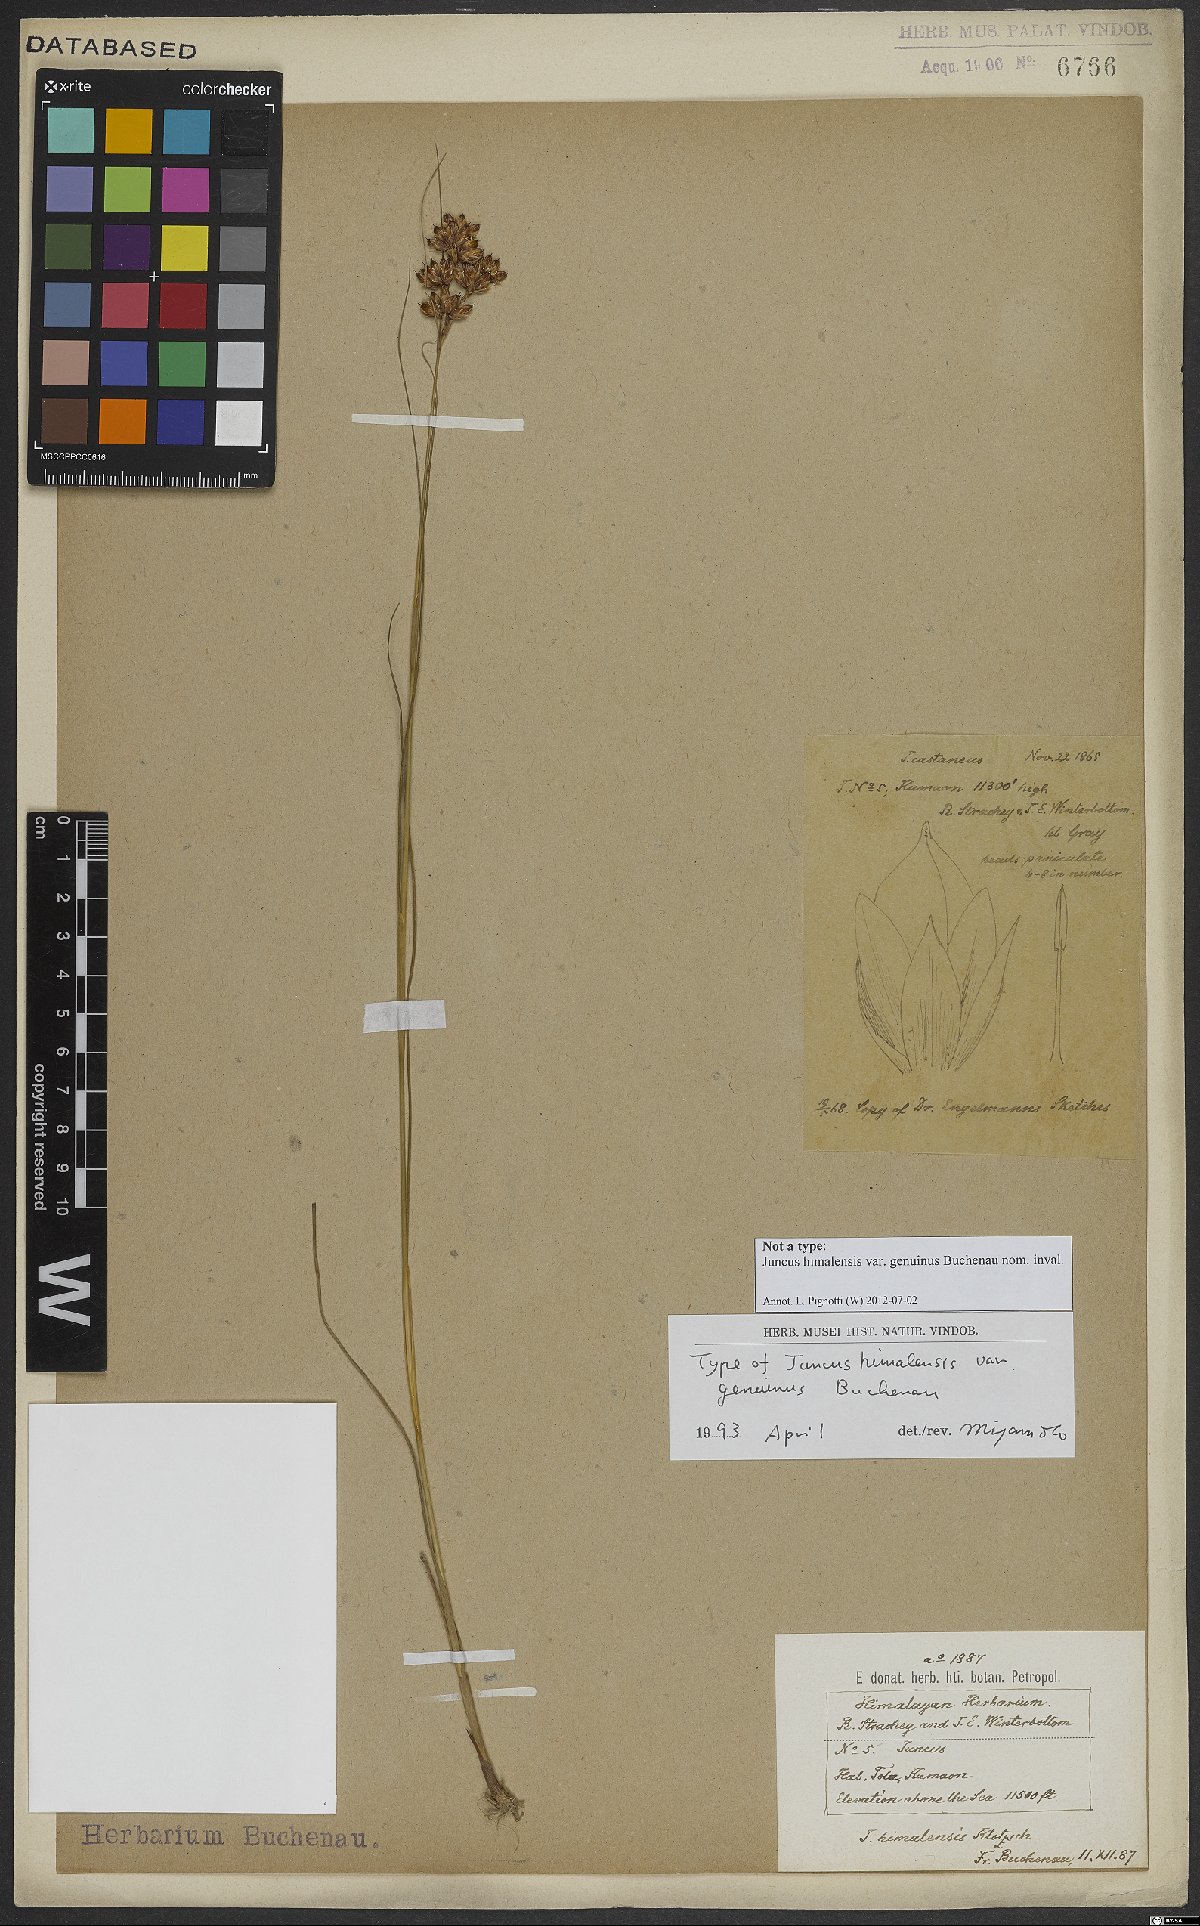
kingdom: Plantae
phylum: Tracheophyta
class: Liliopsida
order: Poales
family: Juncaceae
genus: Juncus
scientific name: Juncus himalensis
